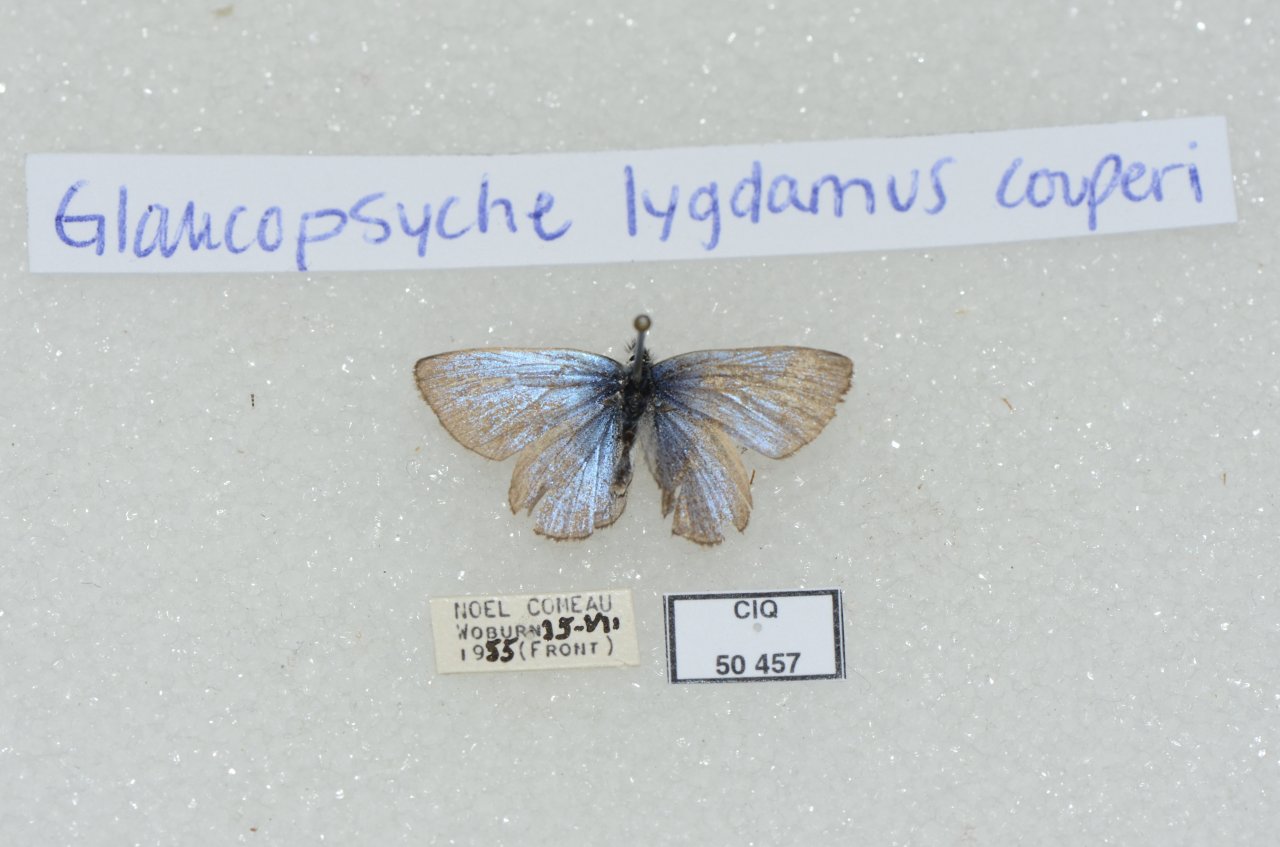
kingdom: Animalia
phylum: Arthropoda
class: Insecta
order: Lepidoptera
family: Lycaenidae
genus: Glaucopsyche
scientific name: Glaucopsyche lygdamus
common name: Silvery Blue
